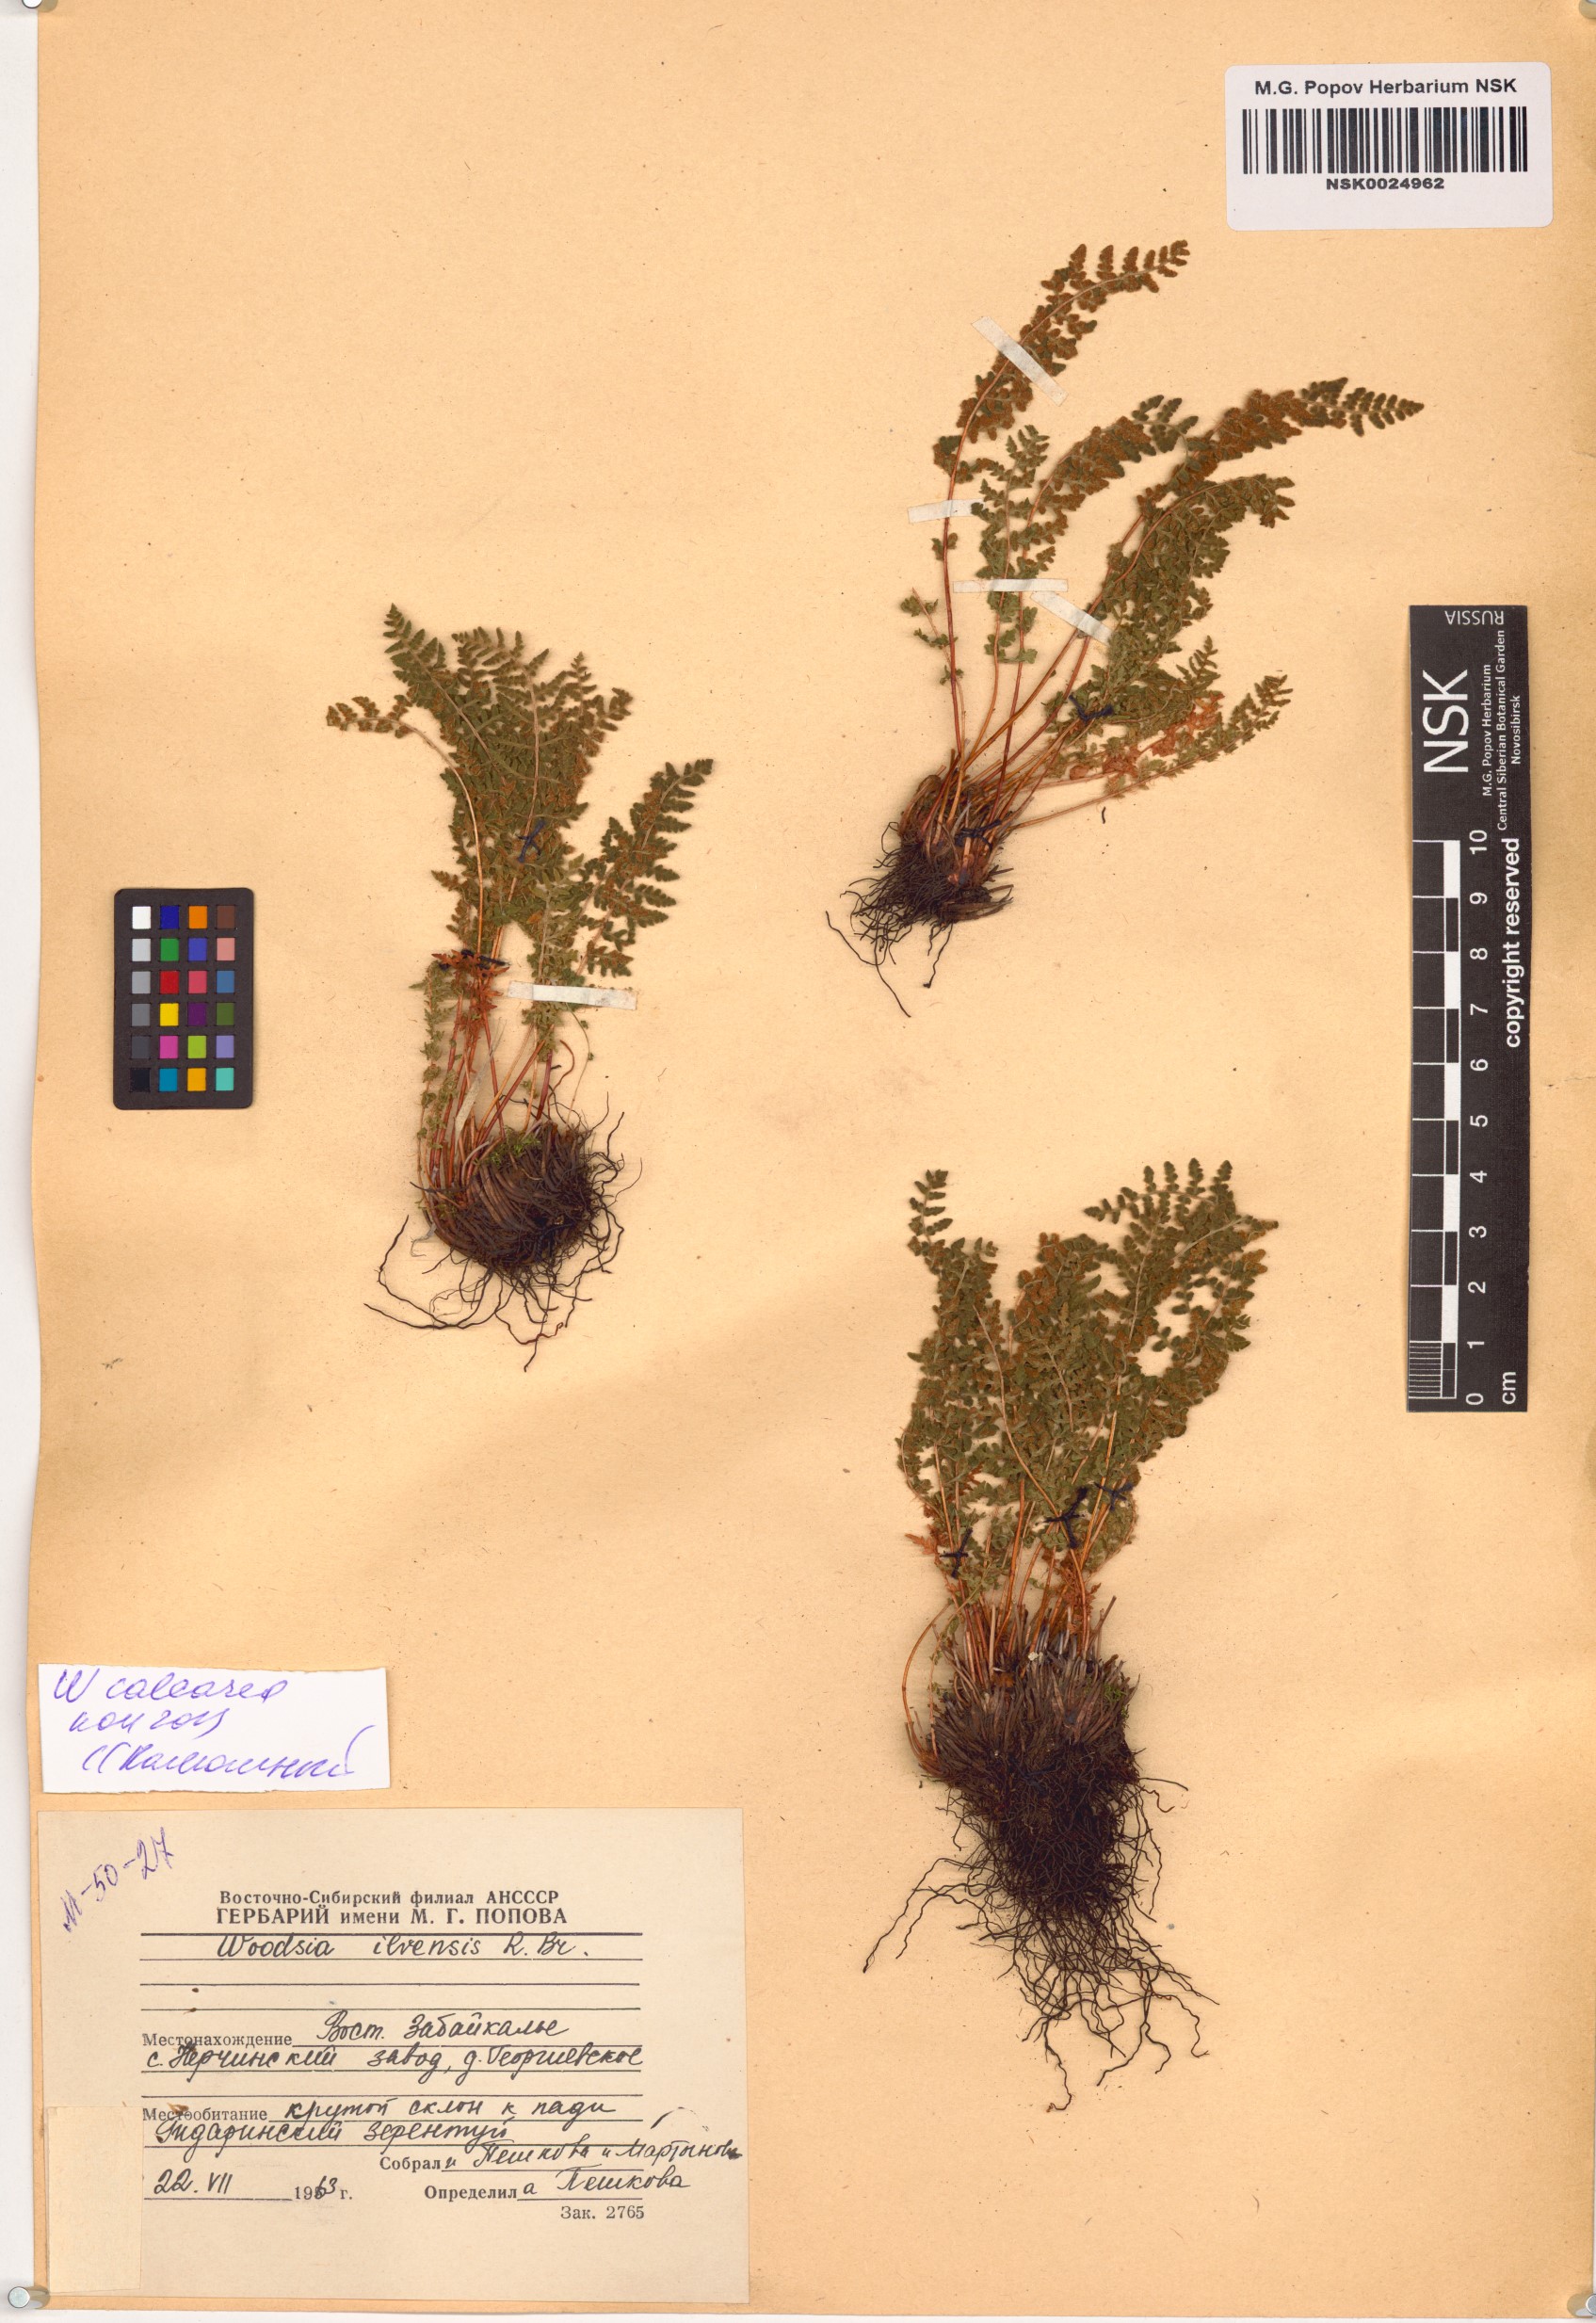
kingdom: Plantae
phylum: Tracheophyta
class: Polypodiopsida
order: Polypodiales
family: Woodsiaceae
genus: Woodsia
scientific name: Woodsia calcarea
